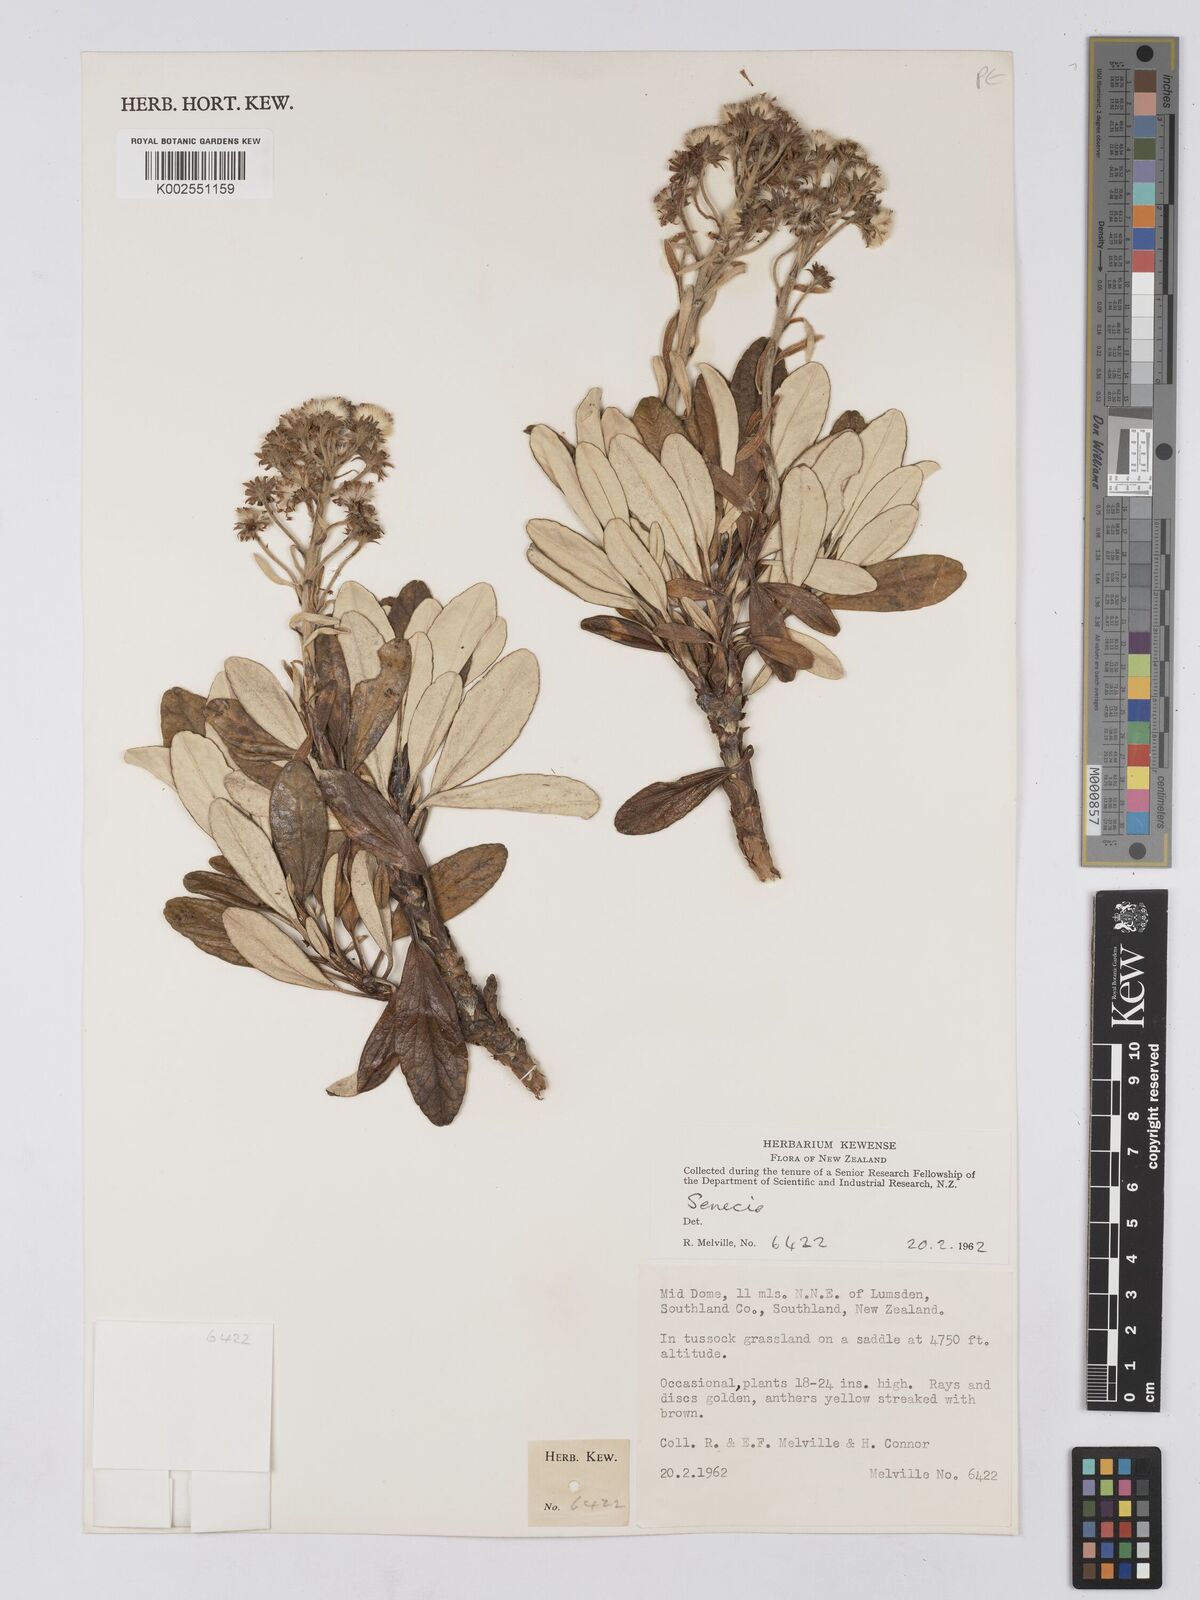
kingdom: Plantae
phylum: Tracheophyta
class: Magnoliopsida
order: Asterales
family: Asteraceae
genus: Brachyglottis
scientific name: Brachyglottis
